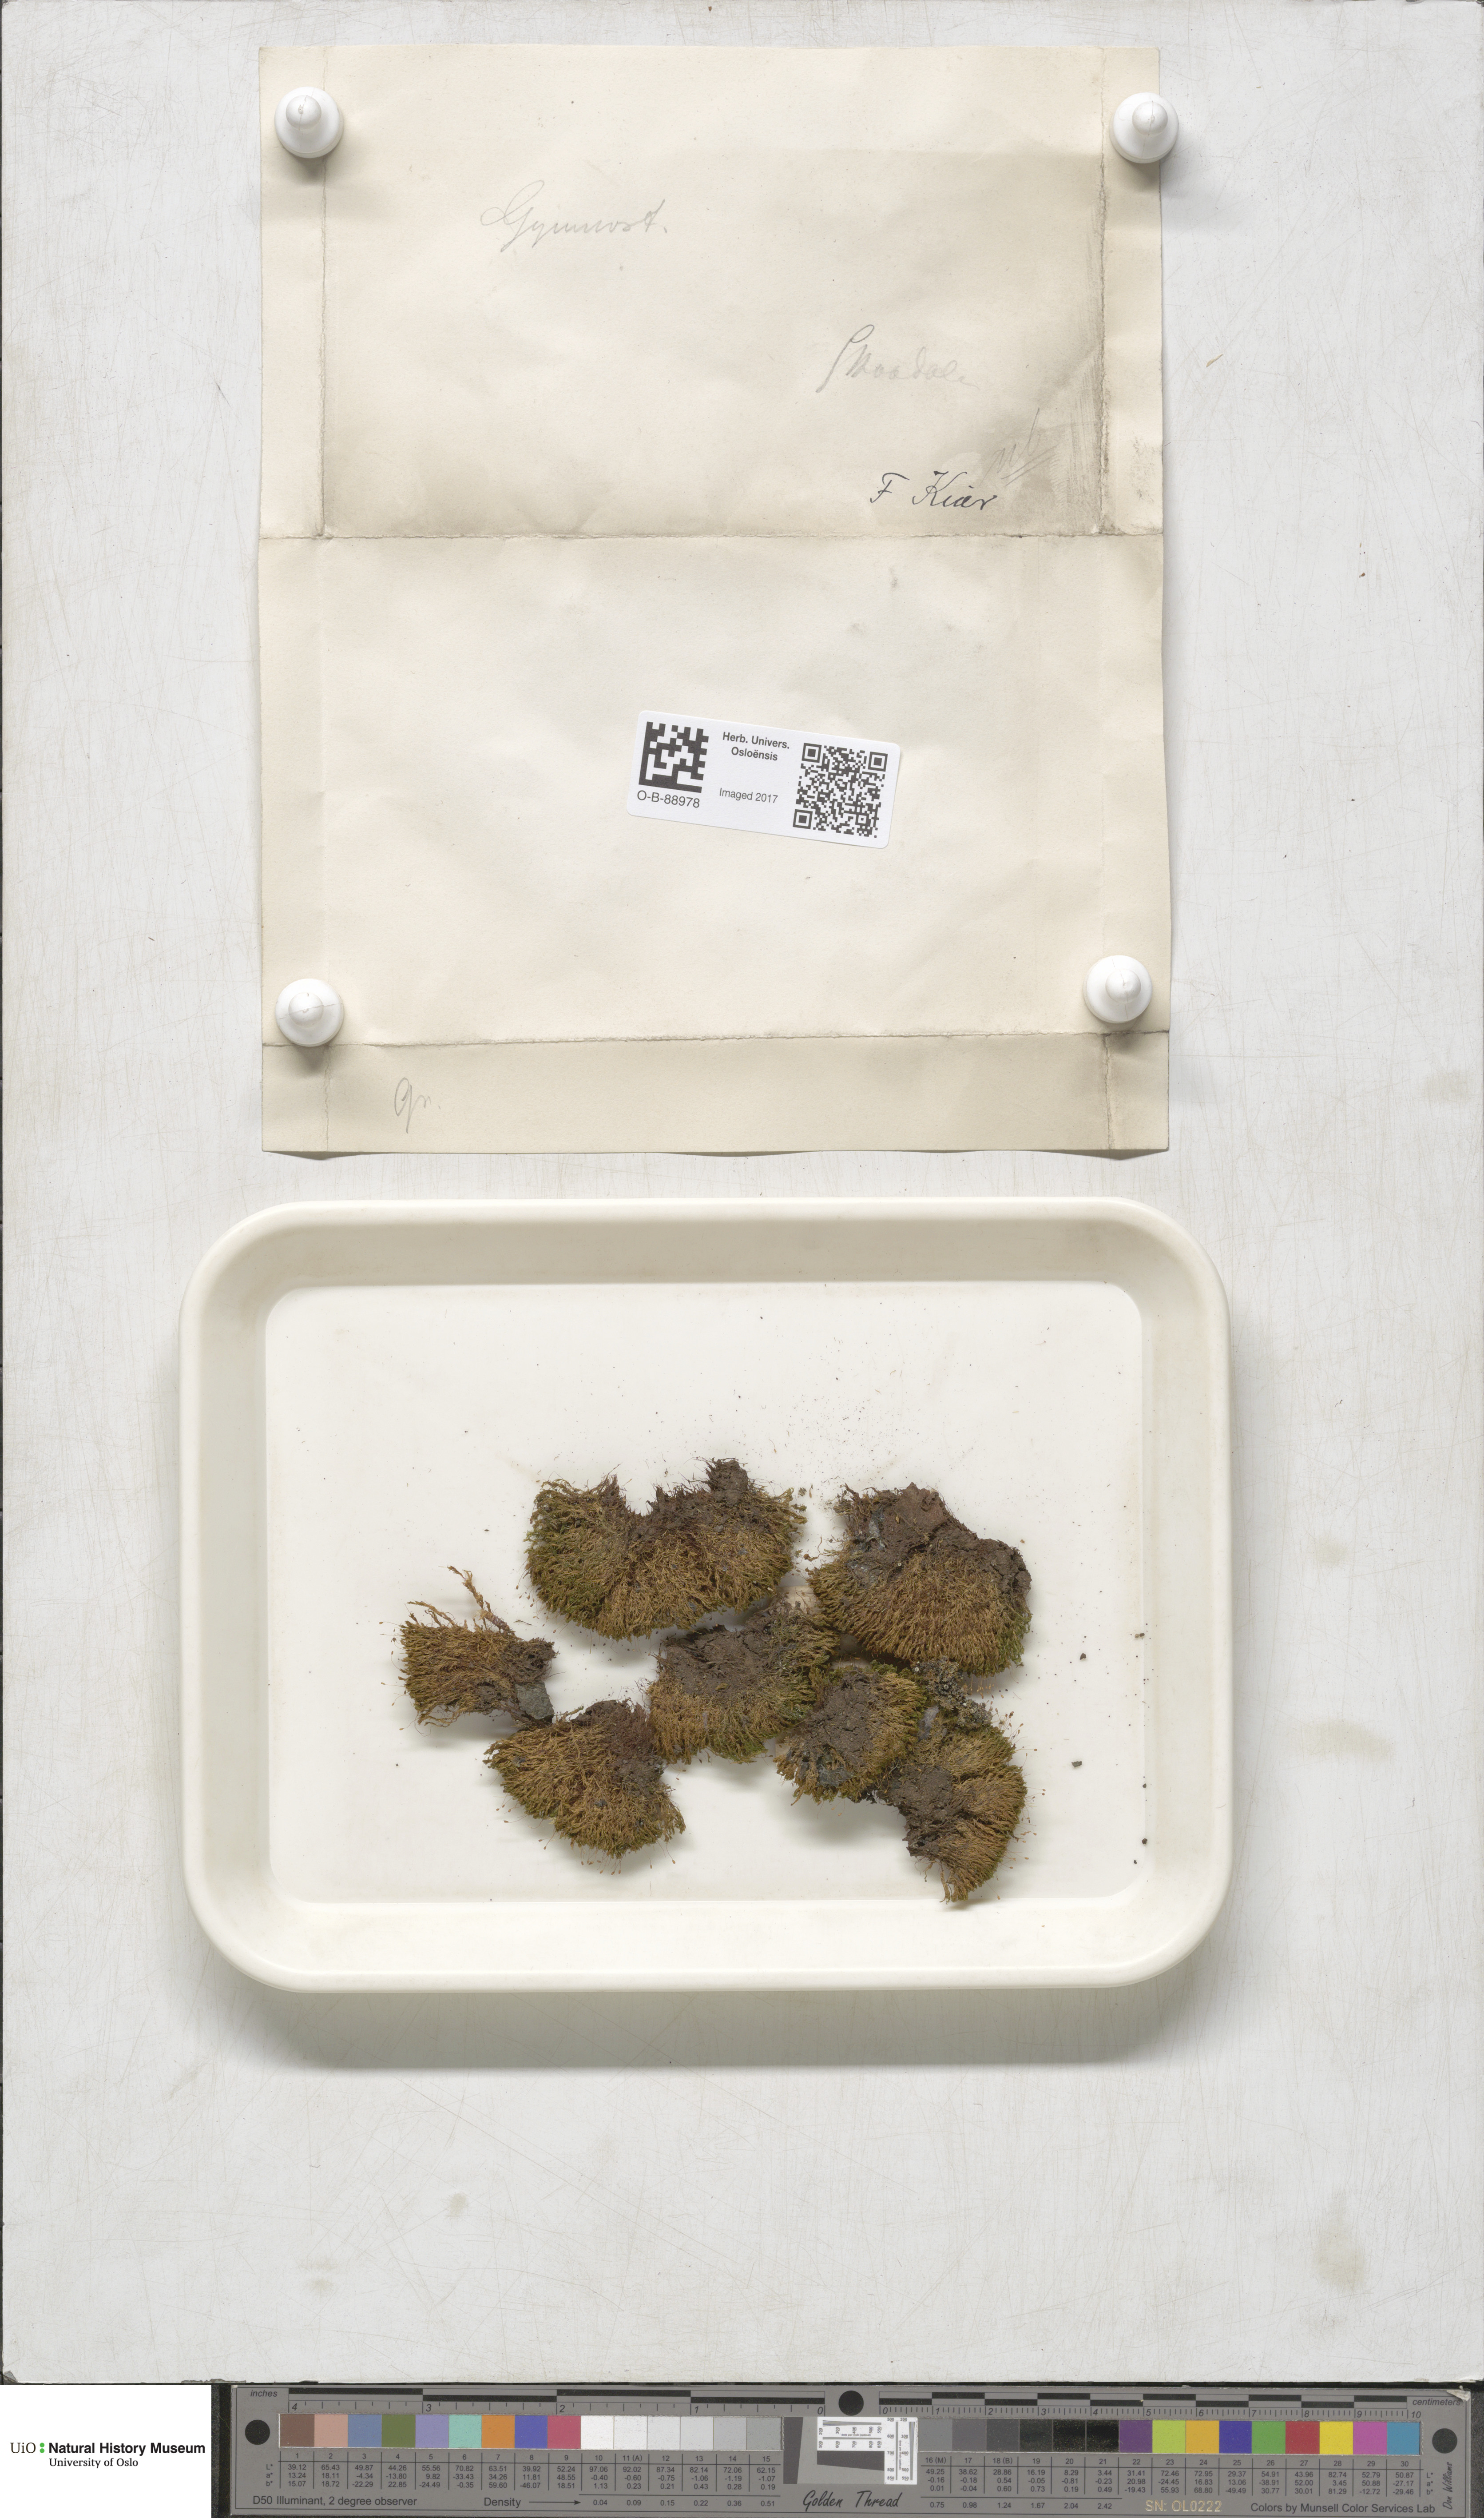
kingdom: Plantae
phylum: Bryophyta
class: Bryopsida
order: Pottiales
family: Pottiaceae
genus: Gymnostomum
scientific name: Gymnostomum aeruginosum
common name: Verdigris tufa-moss
